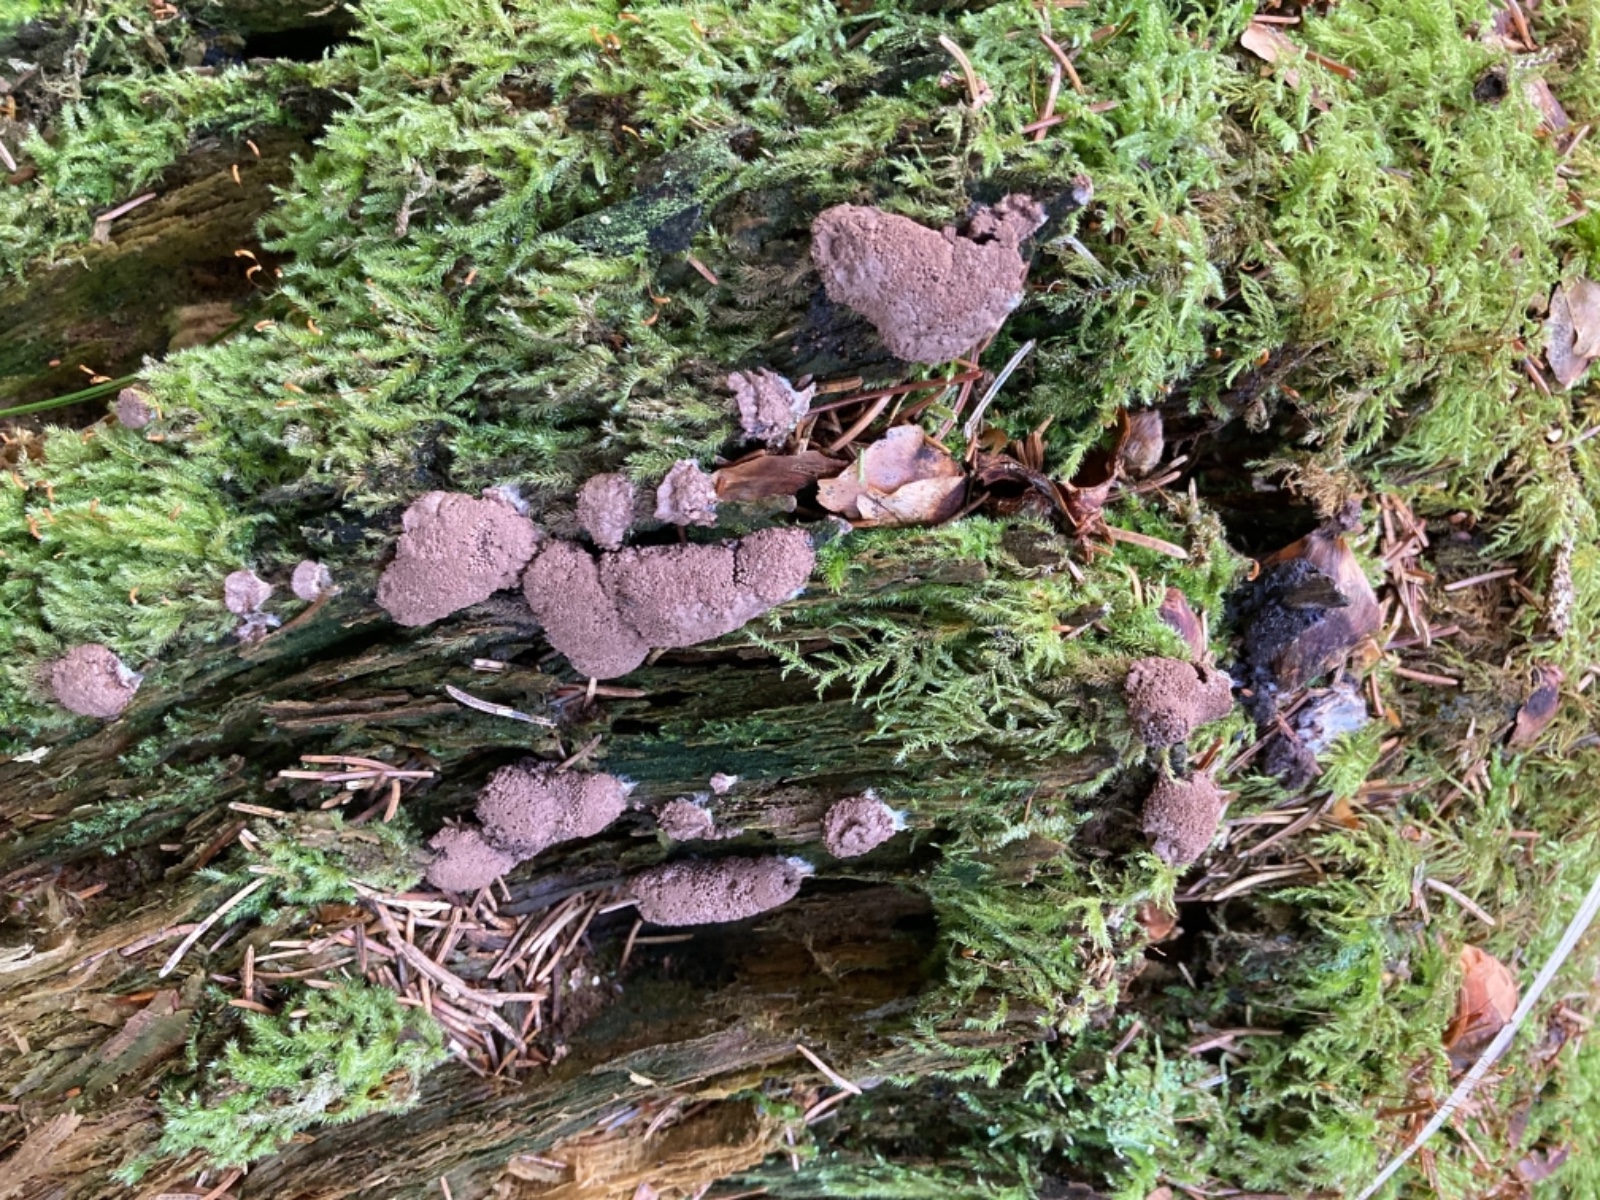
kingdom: Protozoa
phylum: Mycetozoa
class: Myxomycetes
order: Cribrariales
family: Tubiferaceae
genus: Tubifera
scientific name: Tubifera ferruginosa
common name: kanel-støvrør
